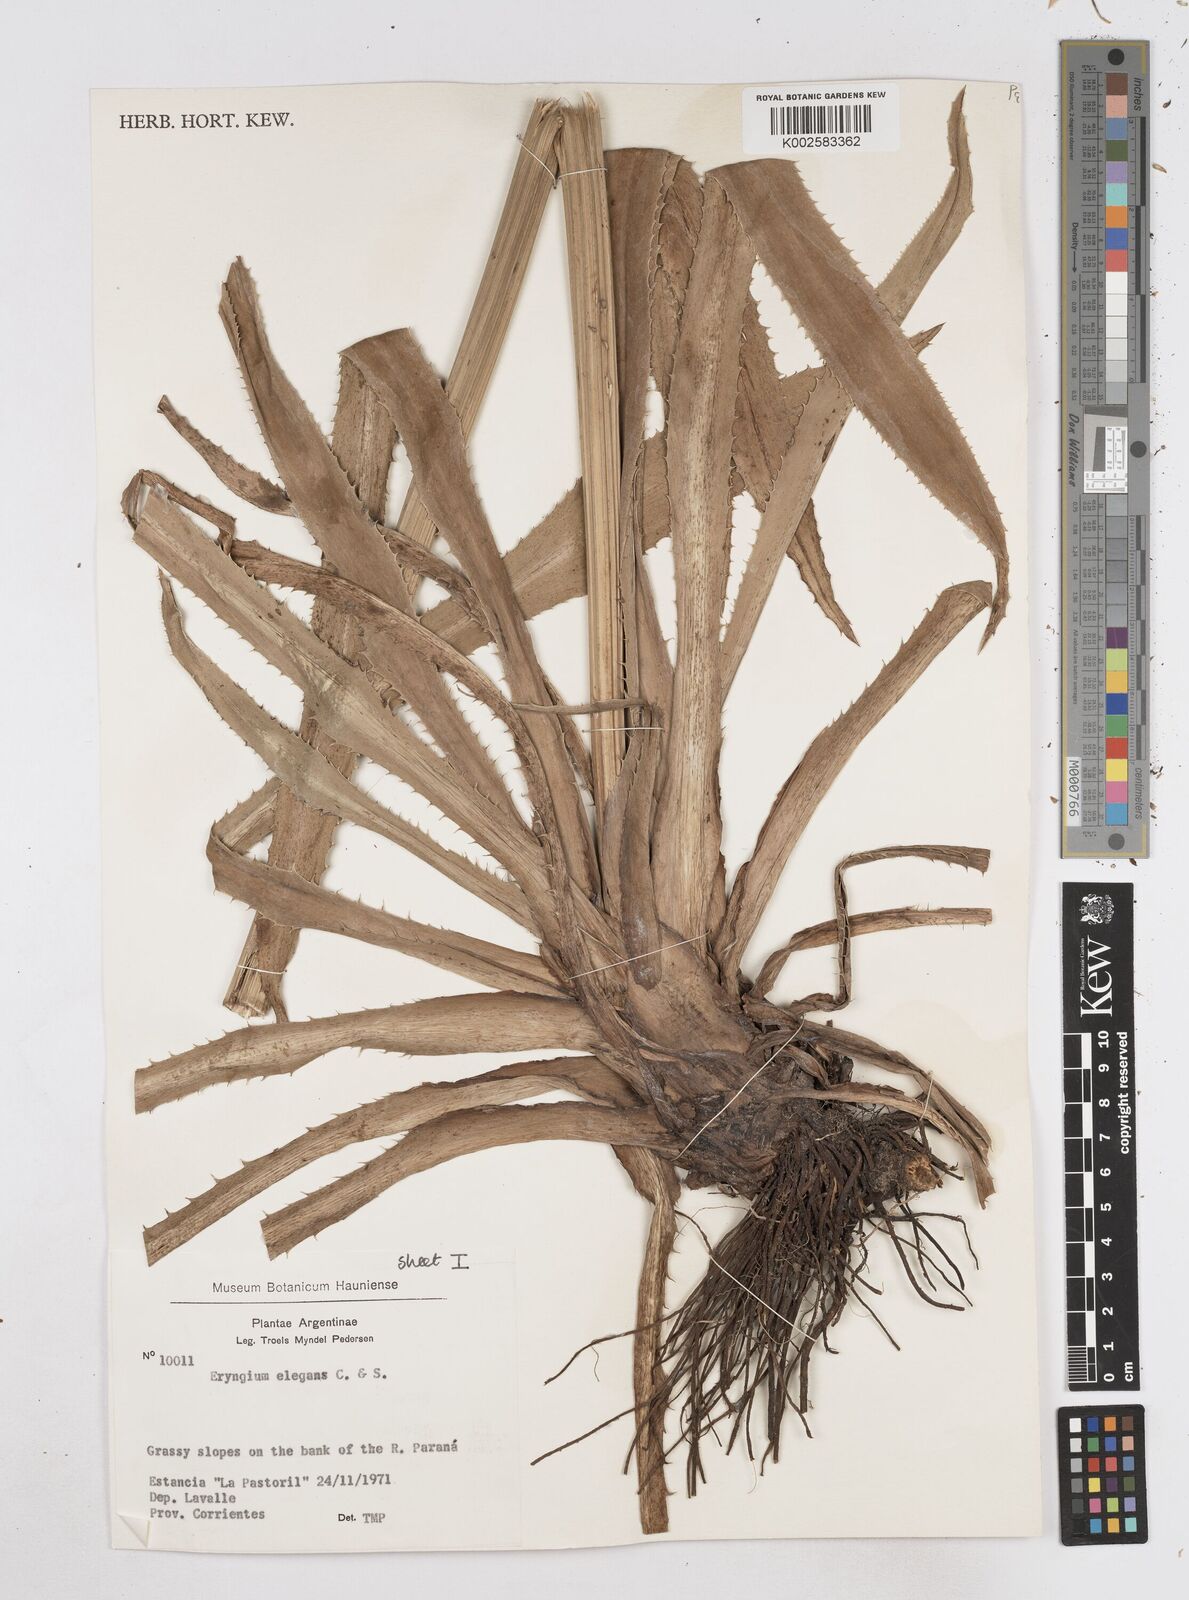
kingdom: Plantae
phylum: Tracheophyta
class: Magnoliopsida
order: Apiales
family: Apiaceae
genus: Eryngium
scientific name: Eryngium elegans
